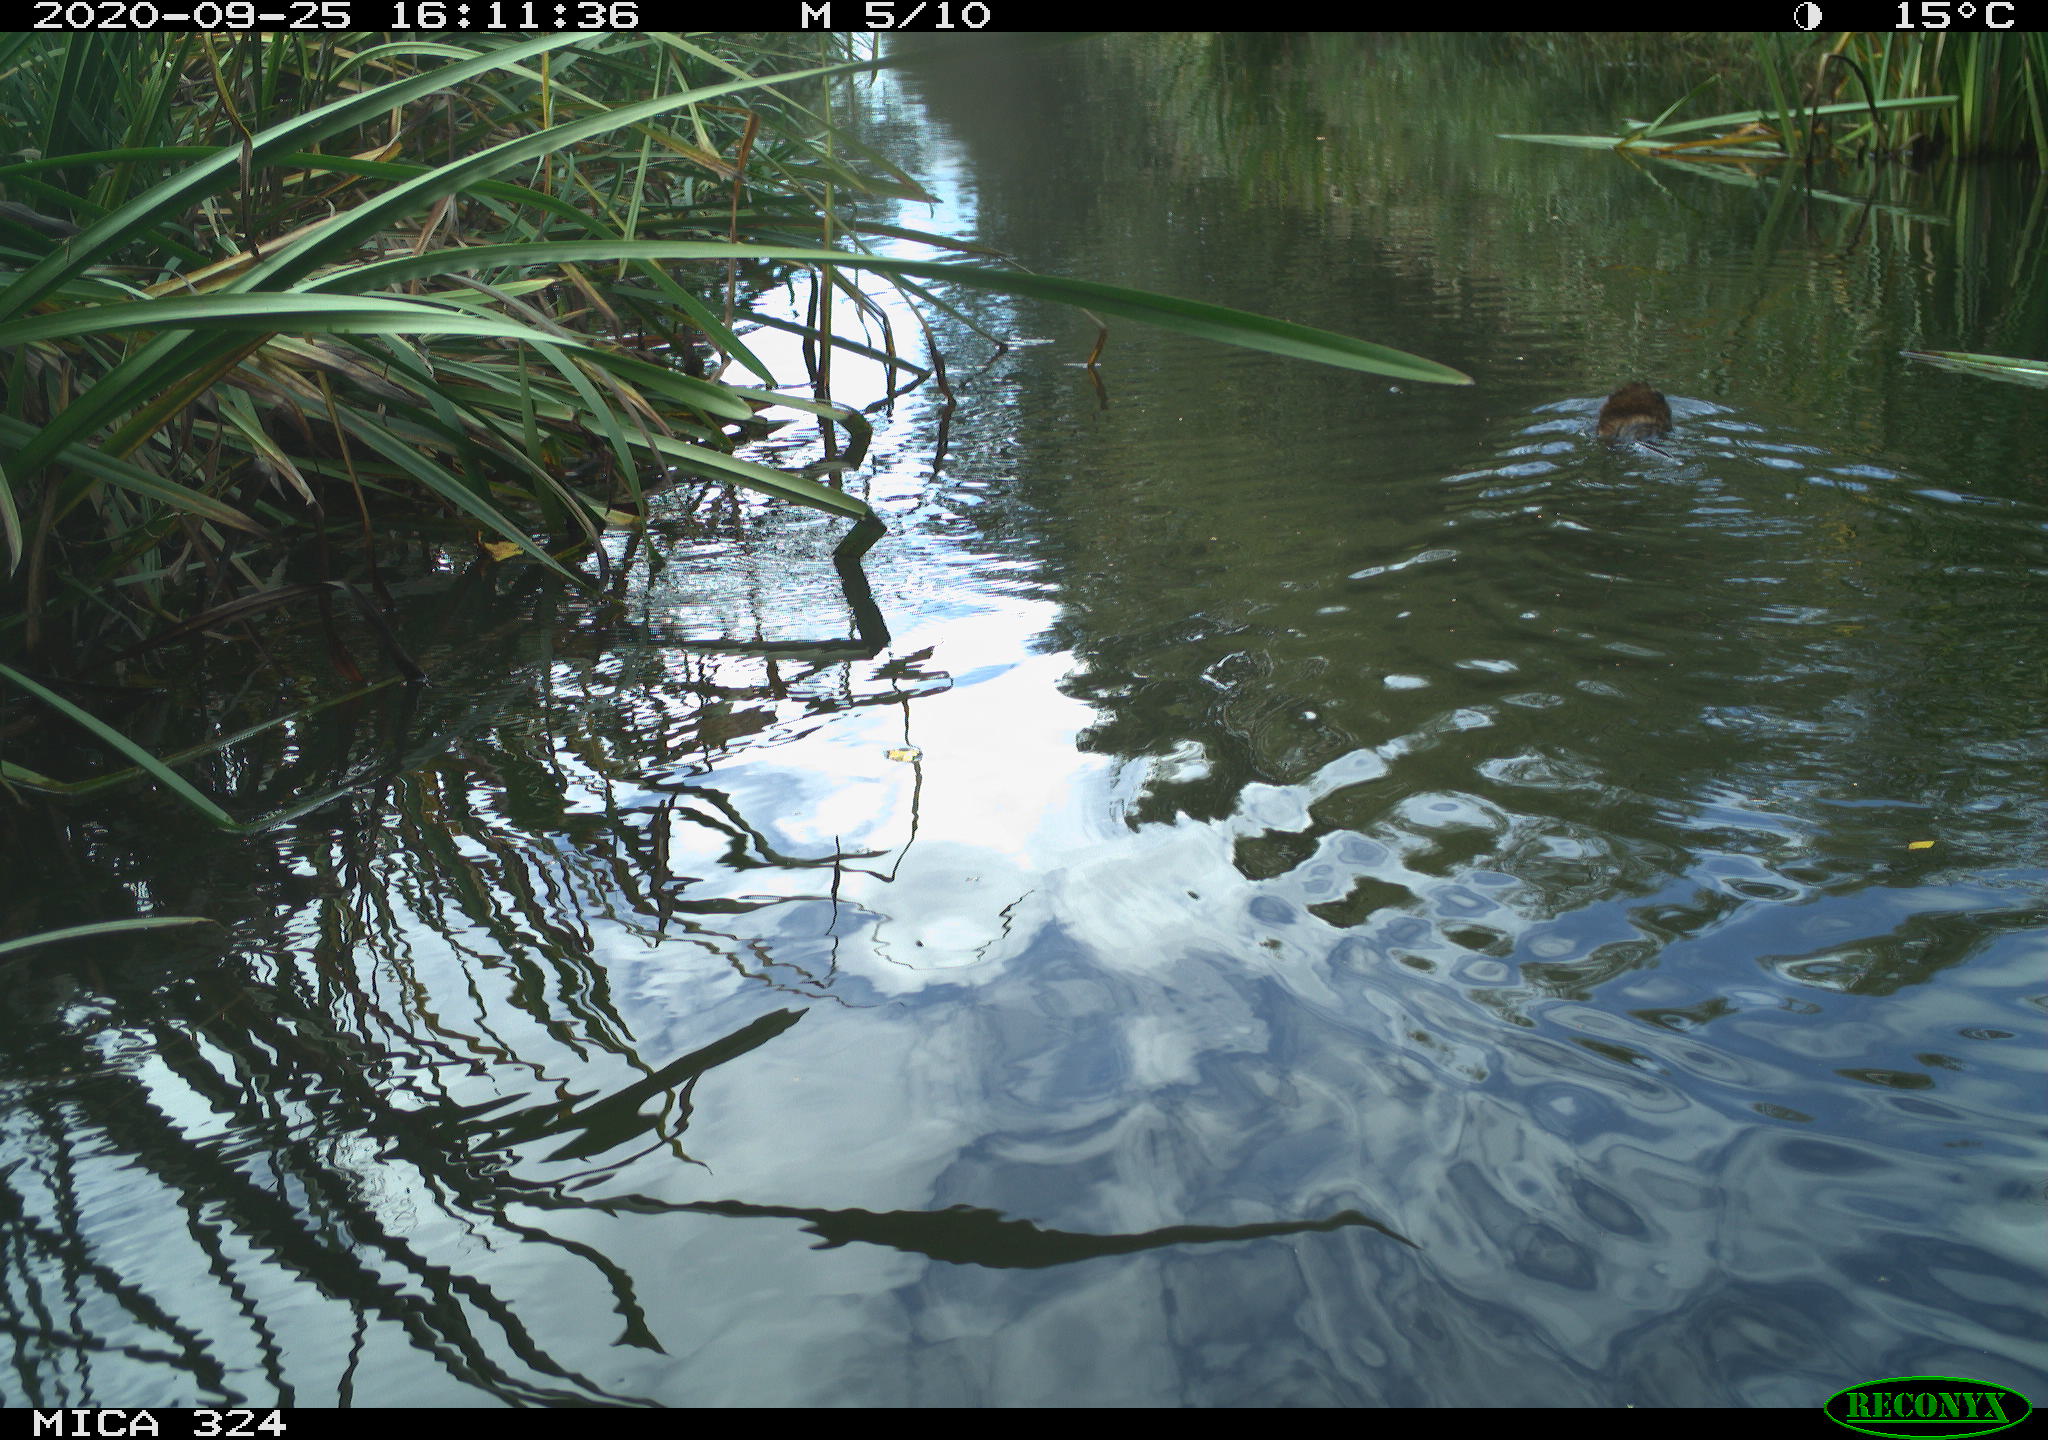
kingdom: Animalia
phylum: Chordata
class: Mammalia
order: Rodentia
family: Cricetidae
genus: Ondatra
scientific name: Ondatra zibethicus
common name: Muskrat
